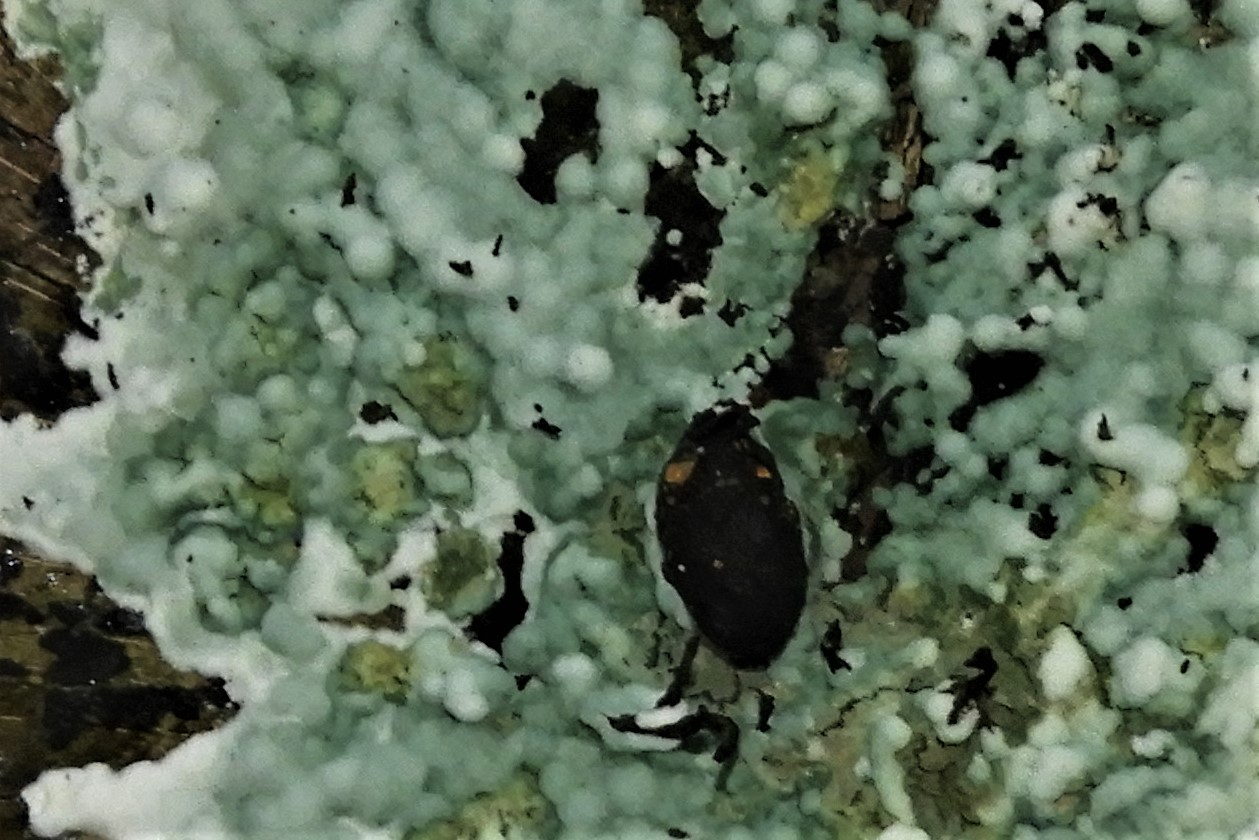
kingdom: Fungi
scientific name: Fungi
